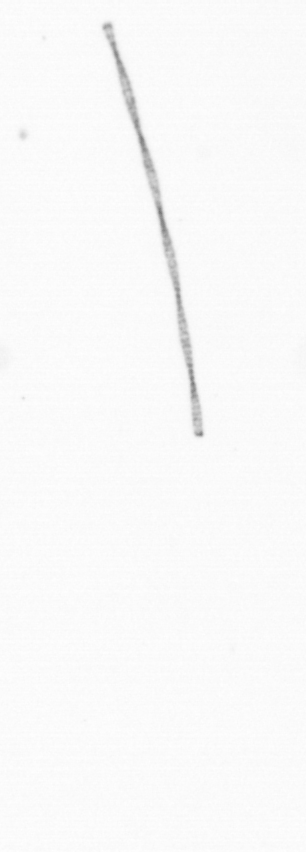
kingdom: Chromista
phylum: Ochrophyta
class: Bacillariophyceae
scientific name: Bacillariophyceae
